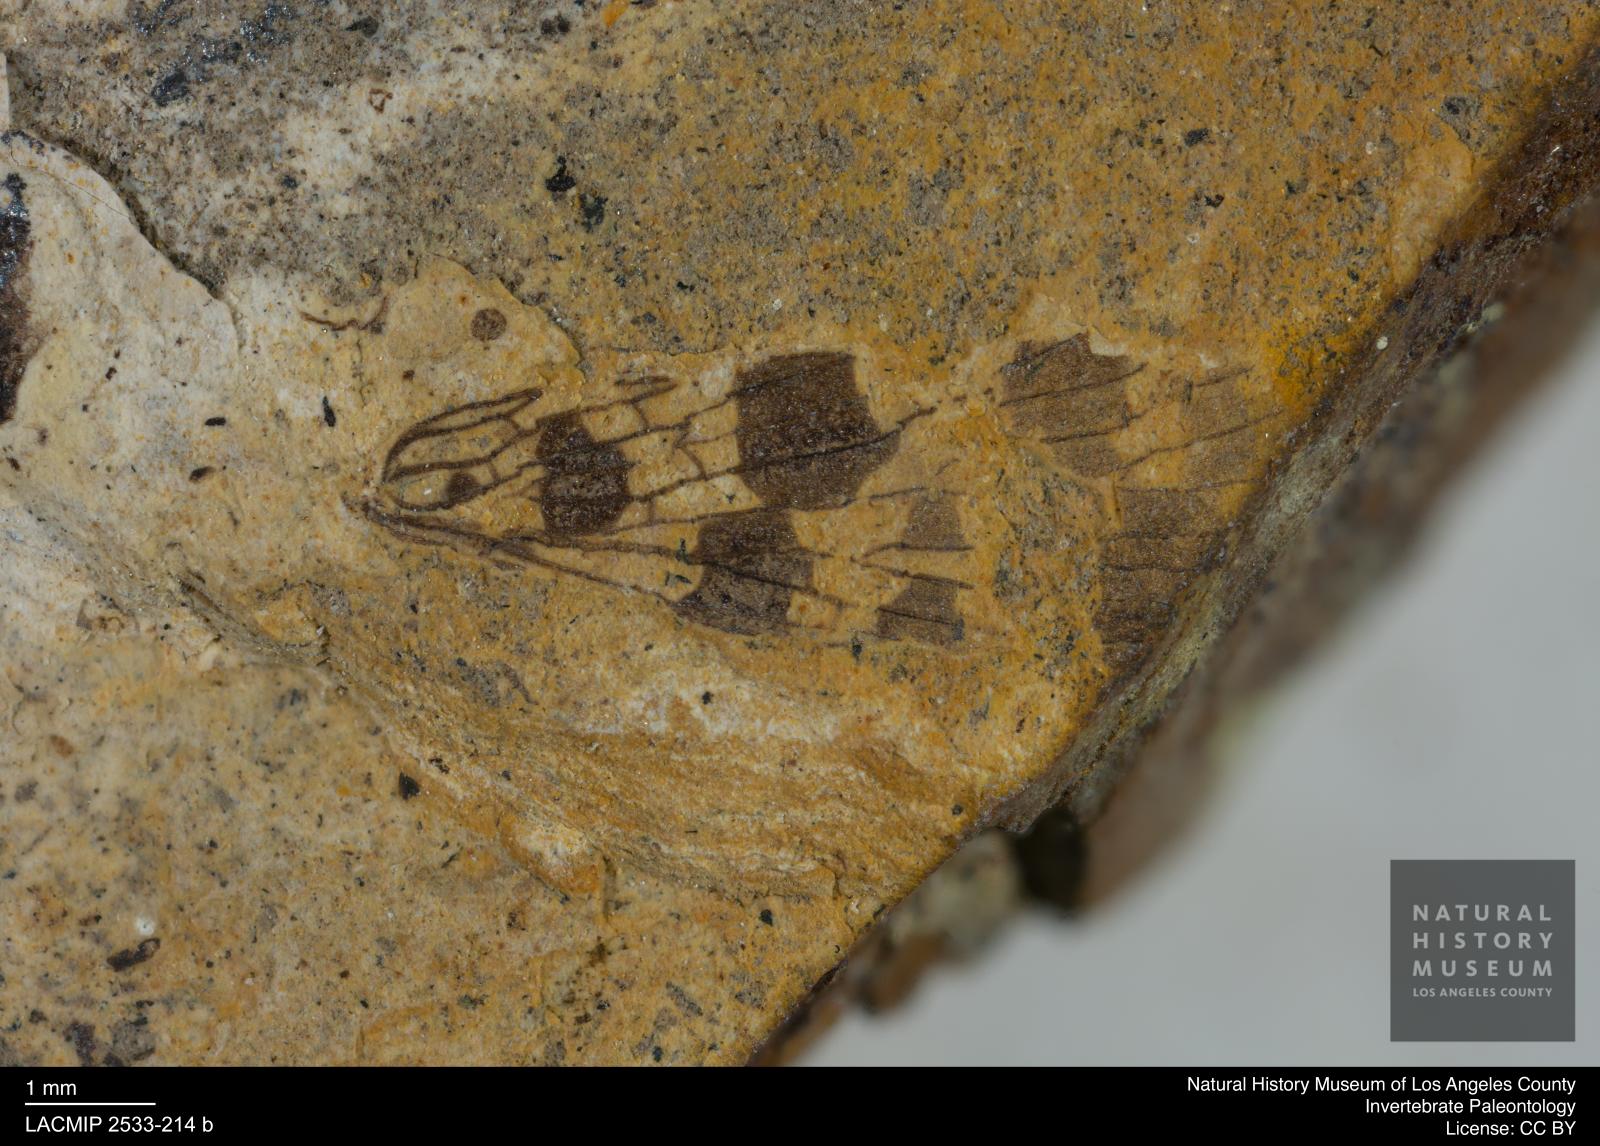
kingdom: Animalia
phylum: Arthropoda
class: Insecta
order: Mecoptera
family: Panorpidae
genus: Panorpa
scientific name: Panorpa maculatuosa
